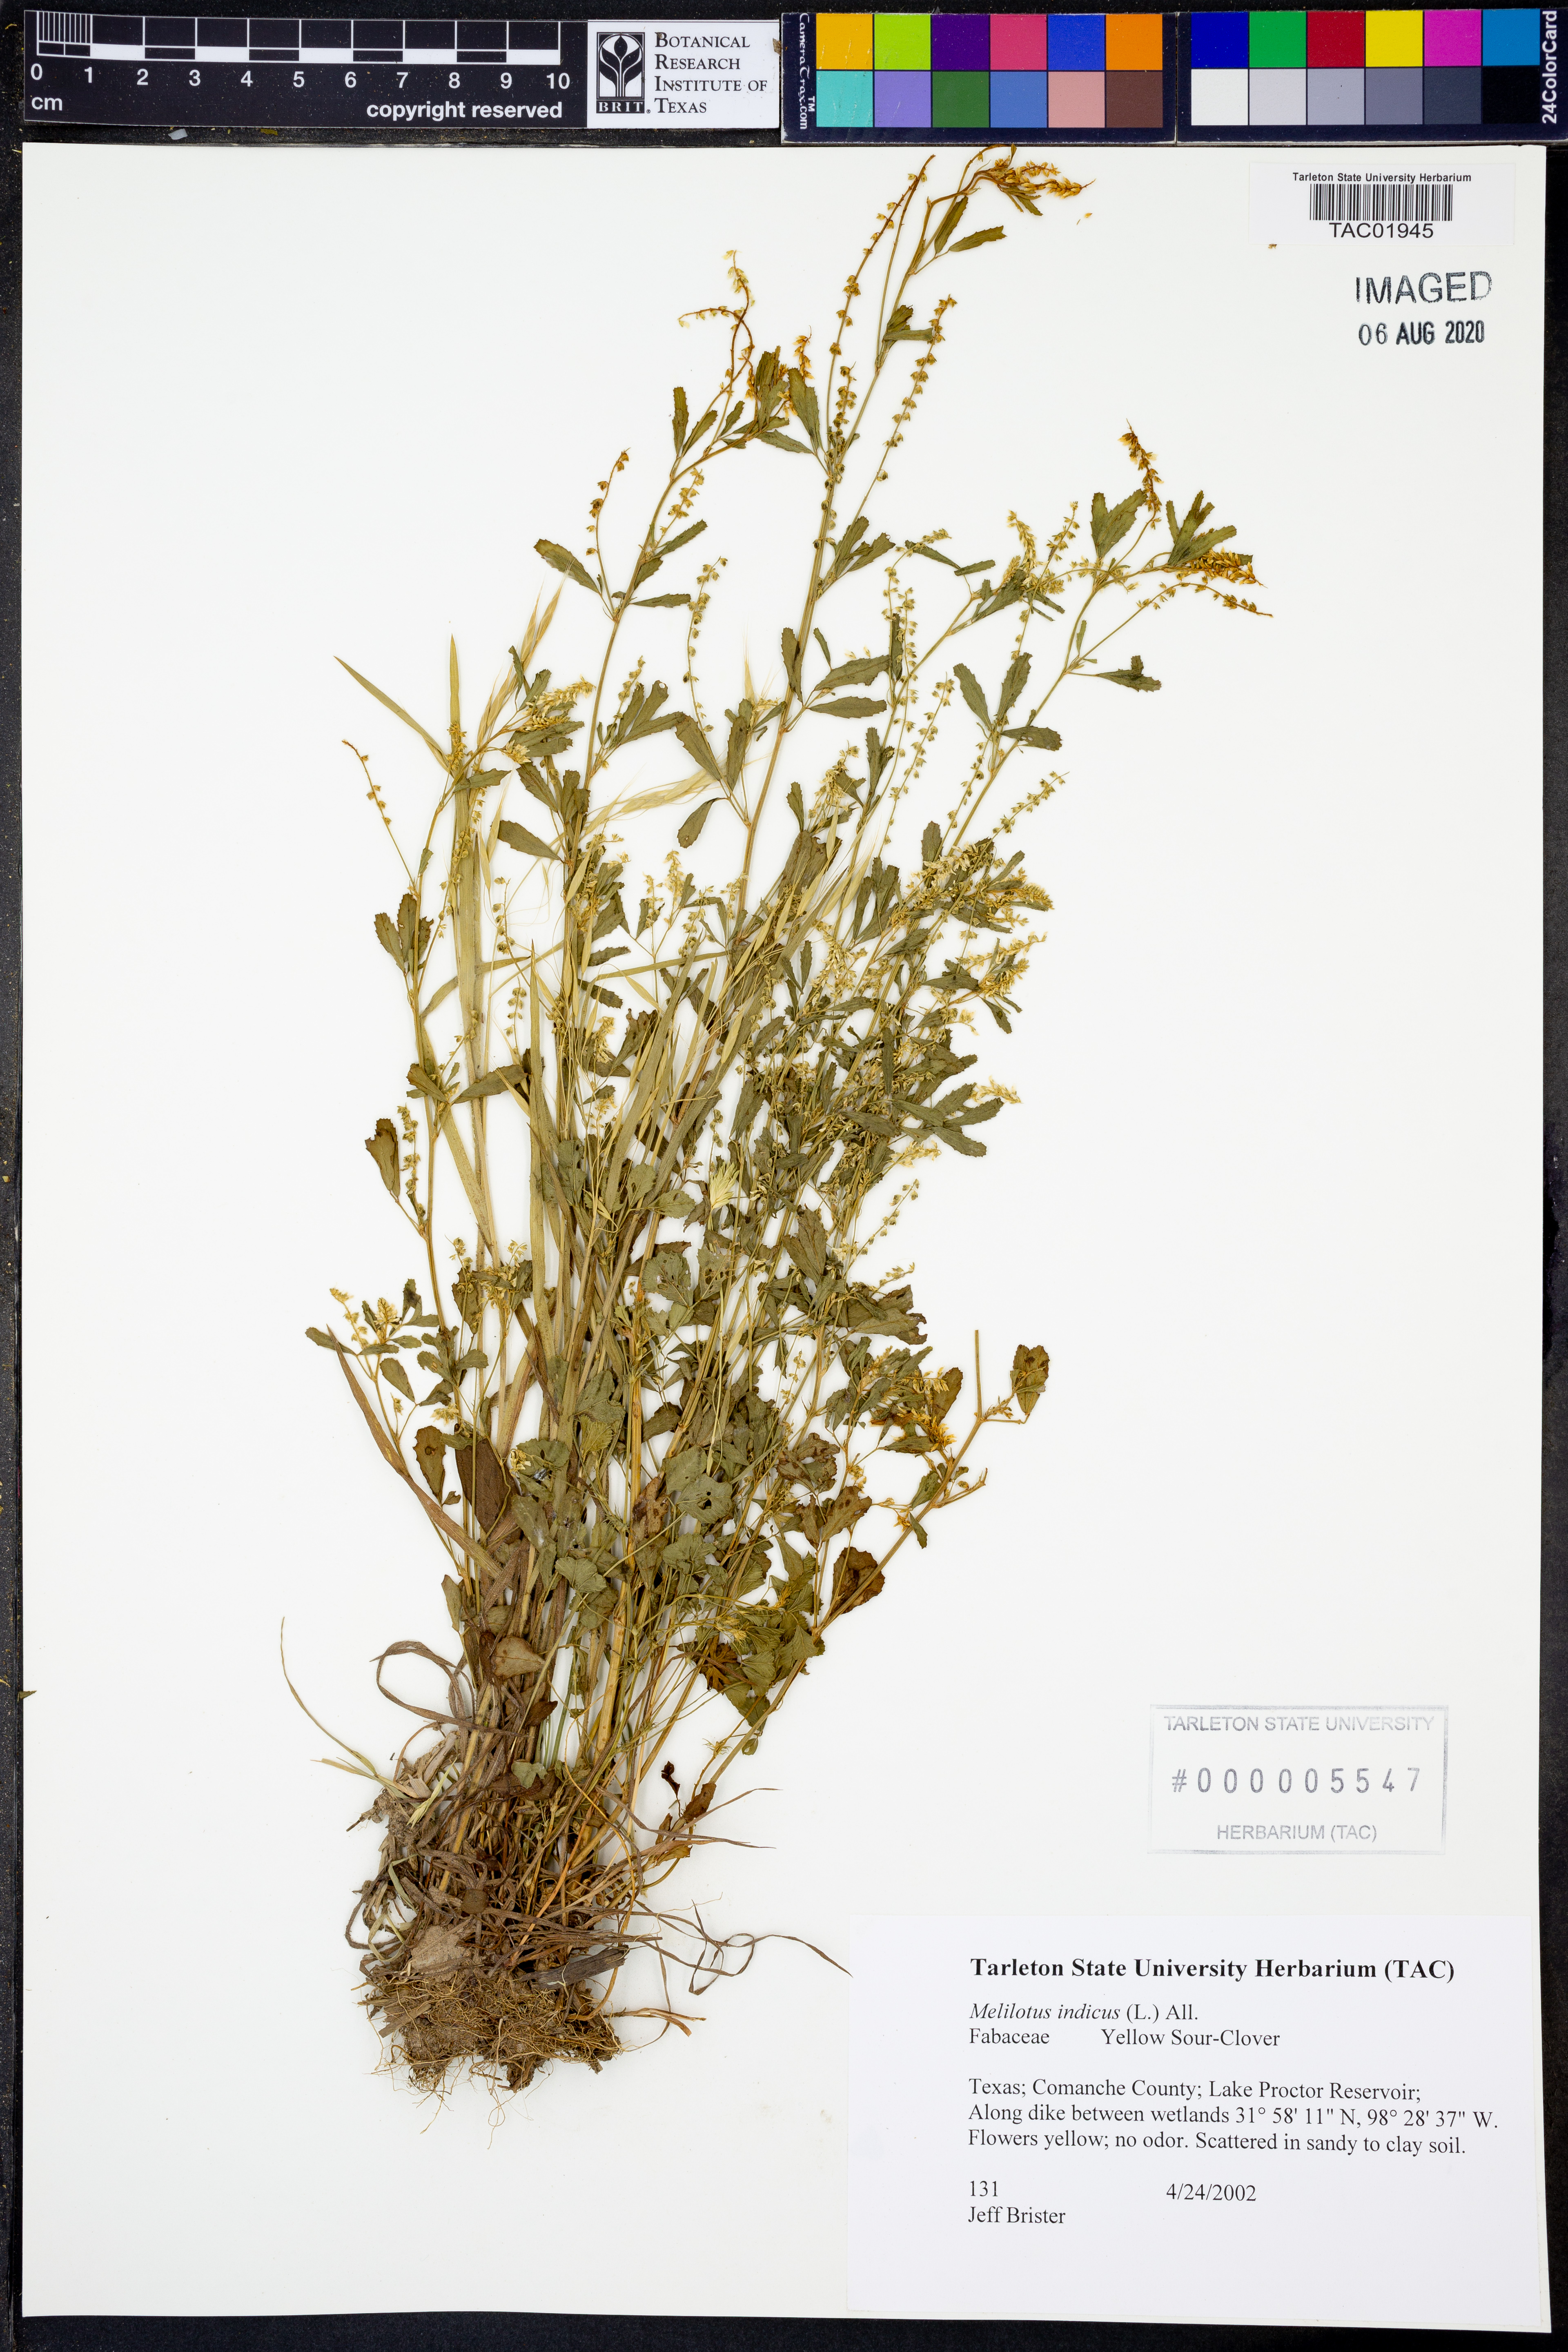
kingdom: Plantae
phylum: Tracheophyta
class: Magnoliopsida
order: Fabales
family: Fabaceae
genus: Melilotus
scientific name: Melilotus indicus
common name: Small melilot
